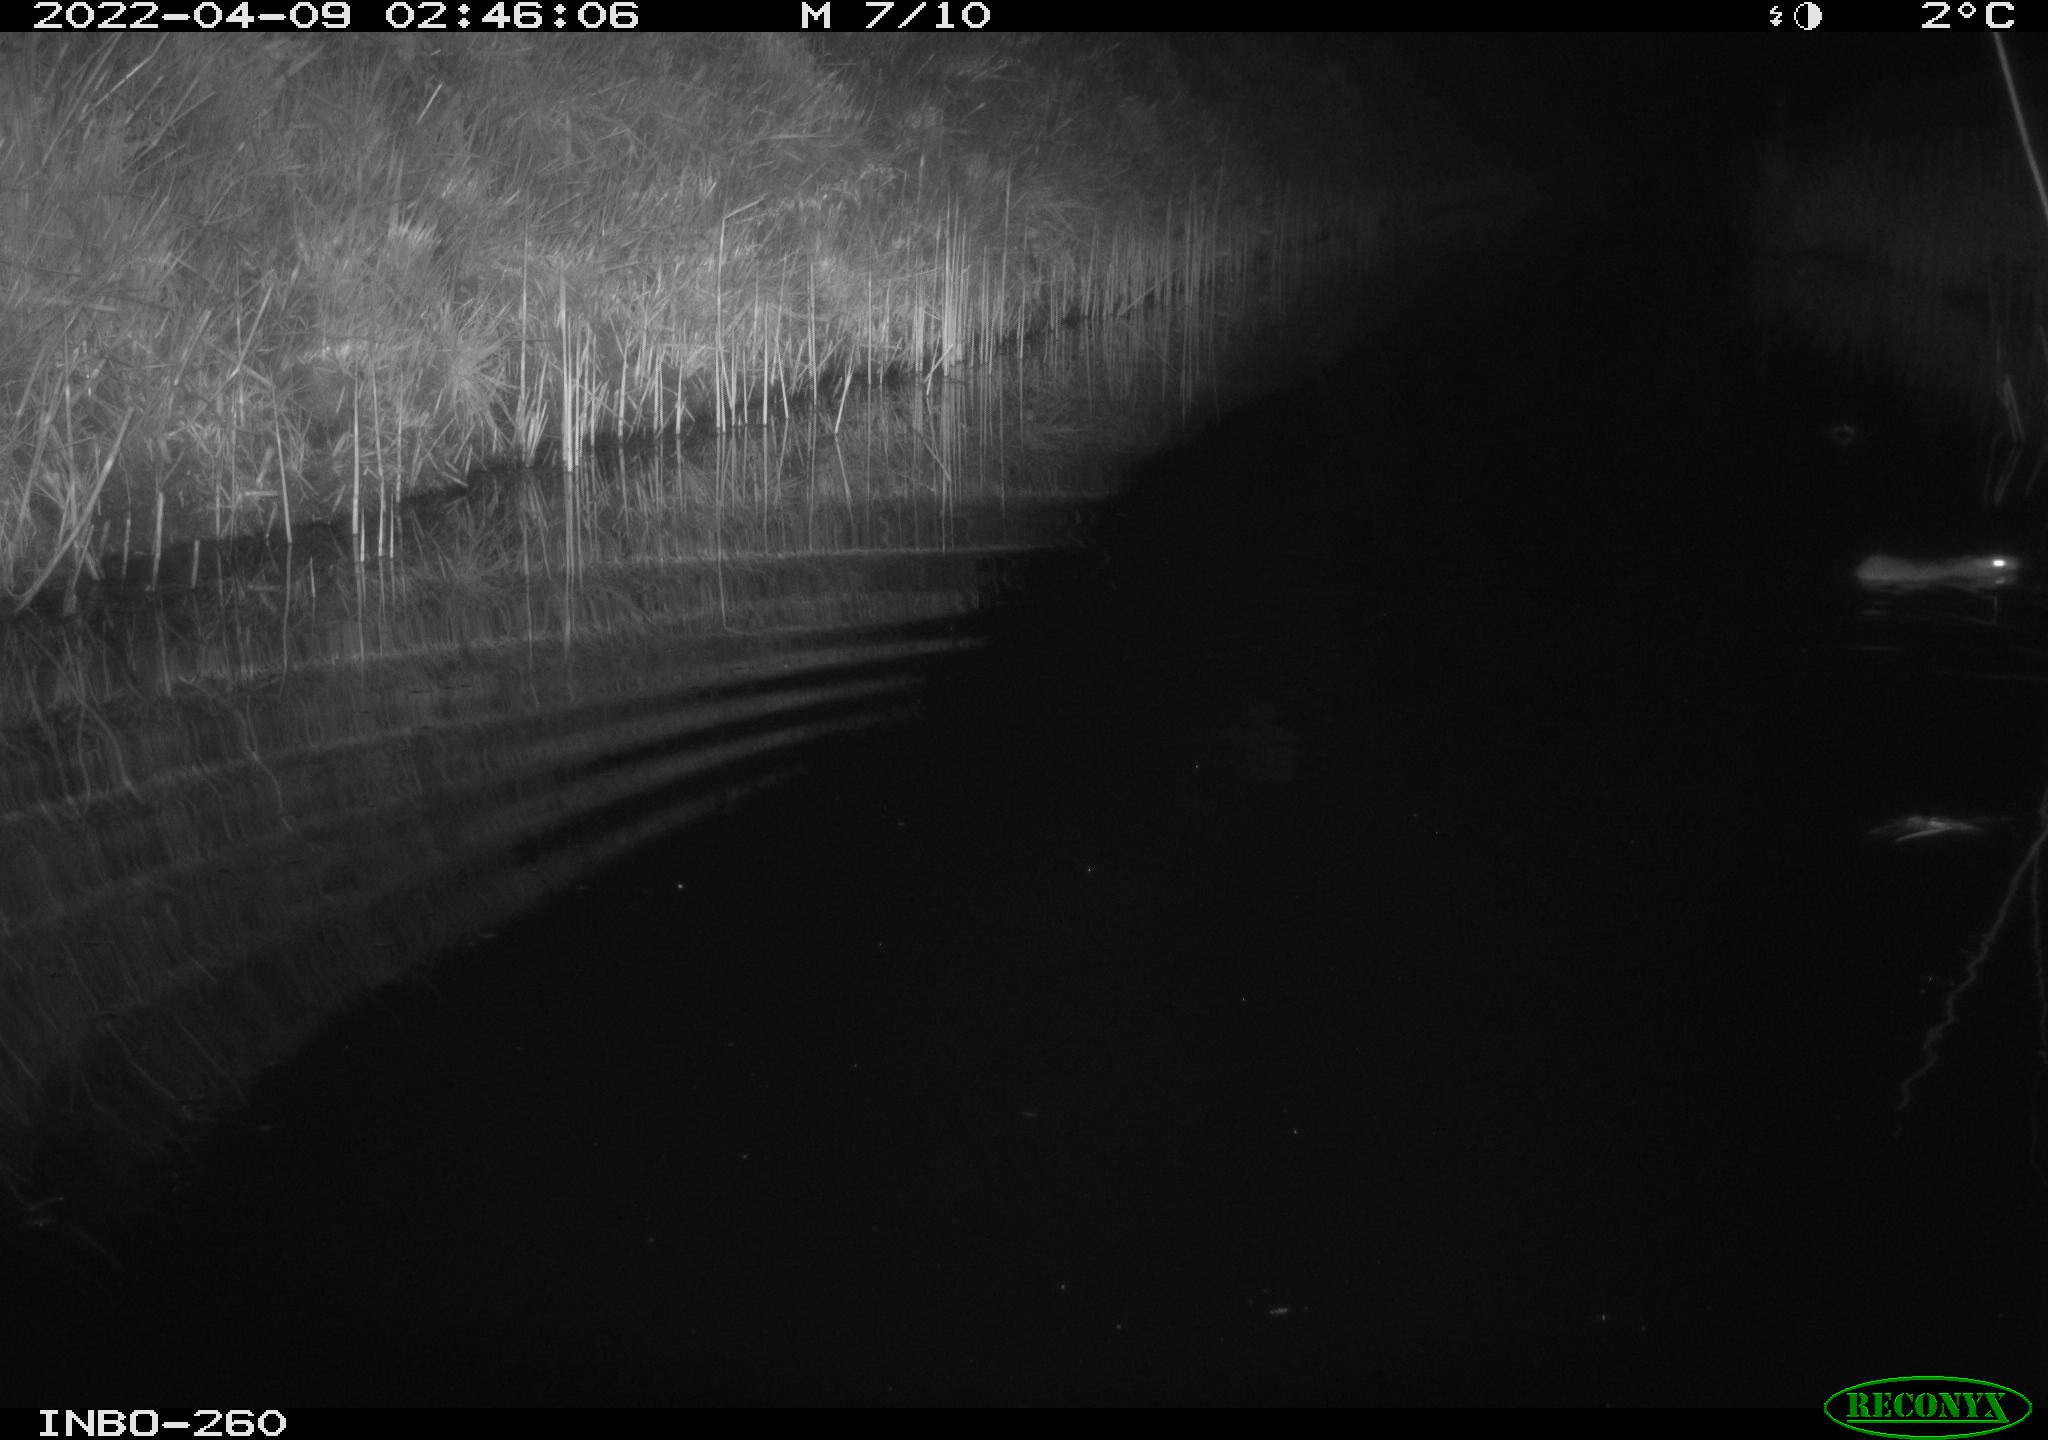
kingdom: Animalia
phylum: Chordata
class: Mammalia
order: Rodentia
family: Muridae
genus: Rattus
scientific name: Rattus norvegicus
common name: Brown rat
